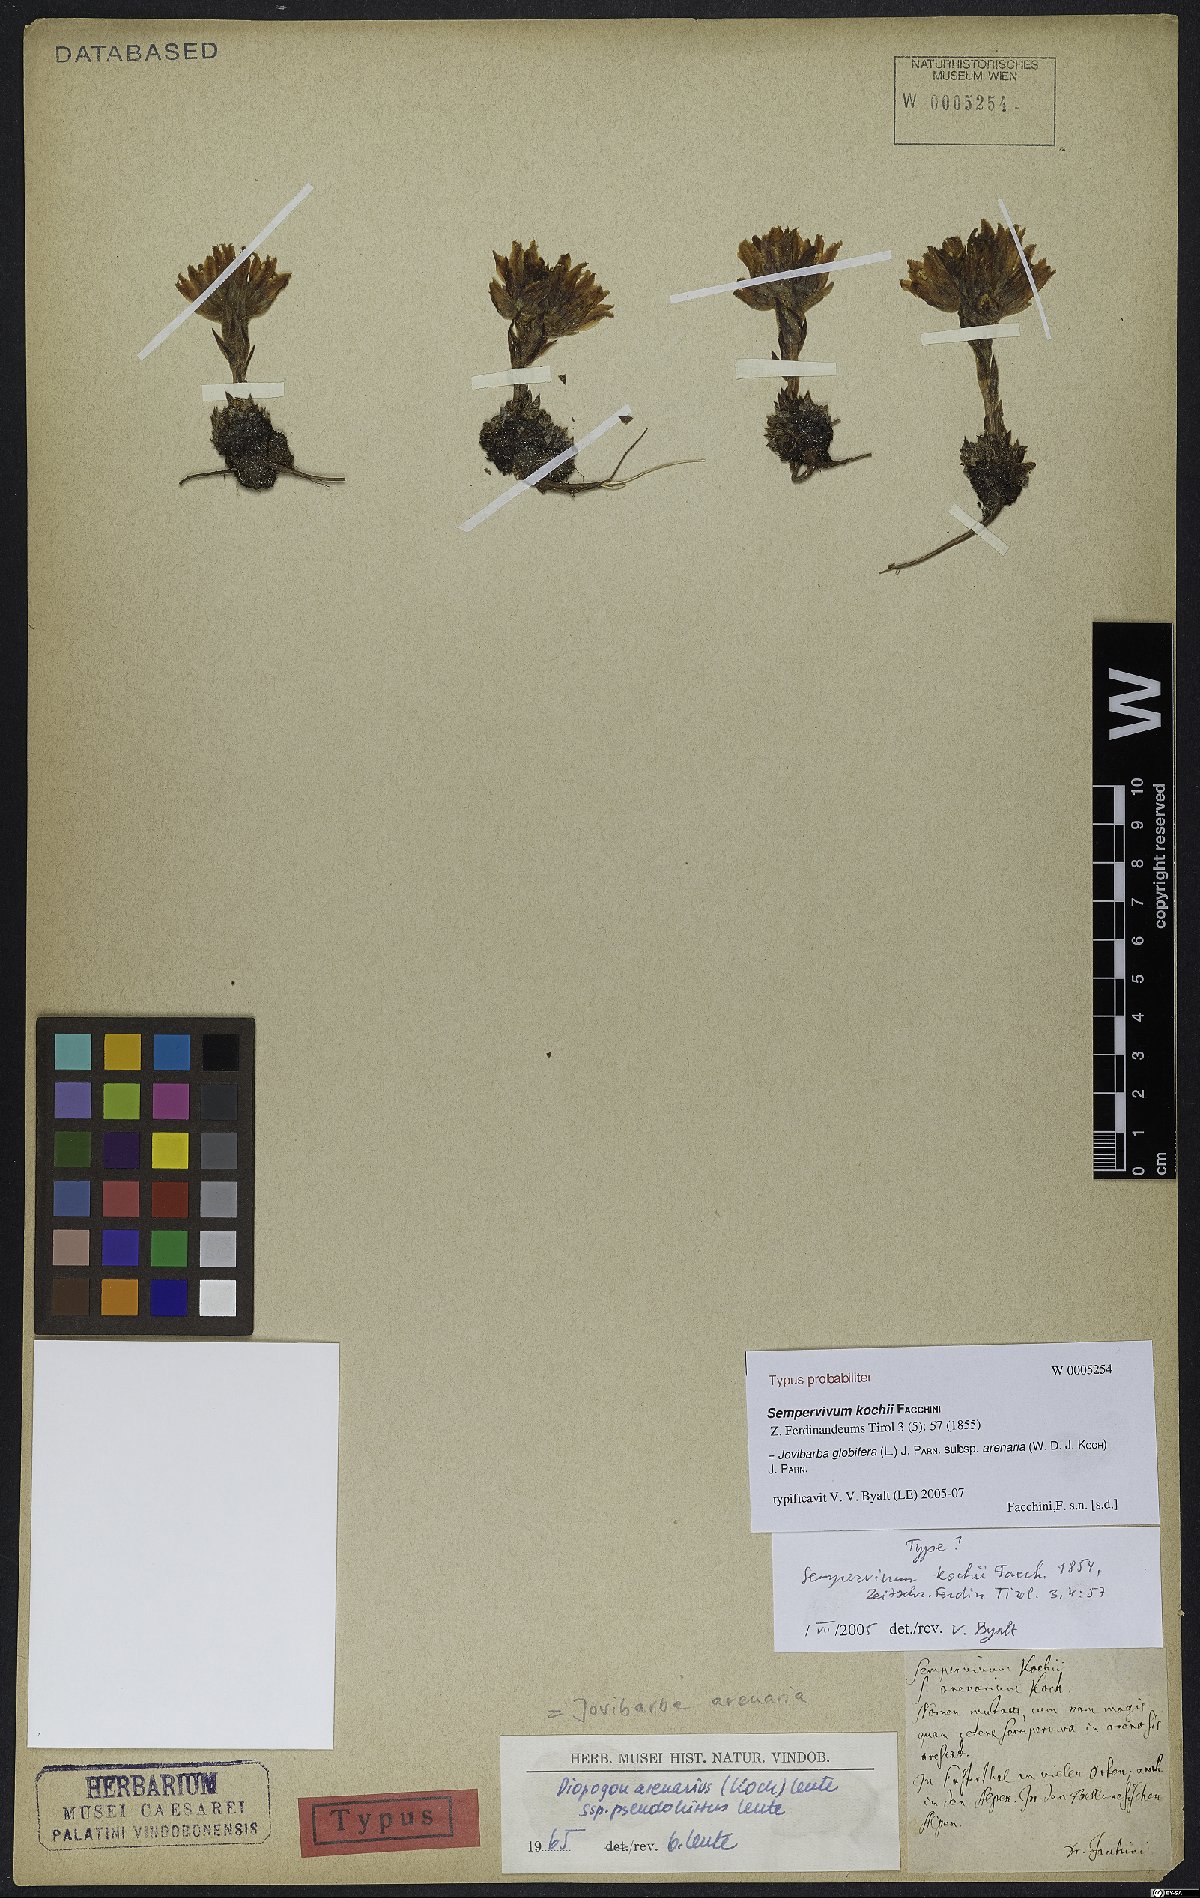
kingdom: Plantae
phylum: Tracheophyta
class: Magnoliopsida
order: Saxifragales
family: Crassulaceae
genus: Sempervivum
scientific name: Sempervivum globiferum
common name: Rolling hen-and-chicks
